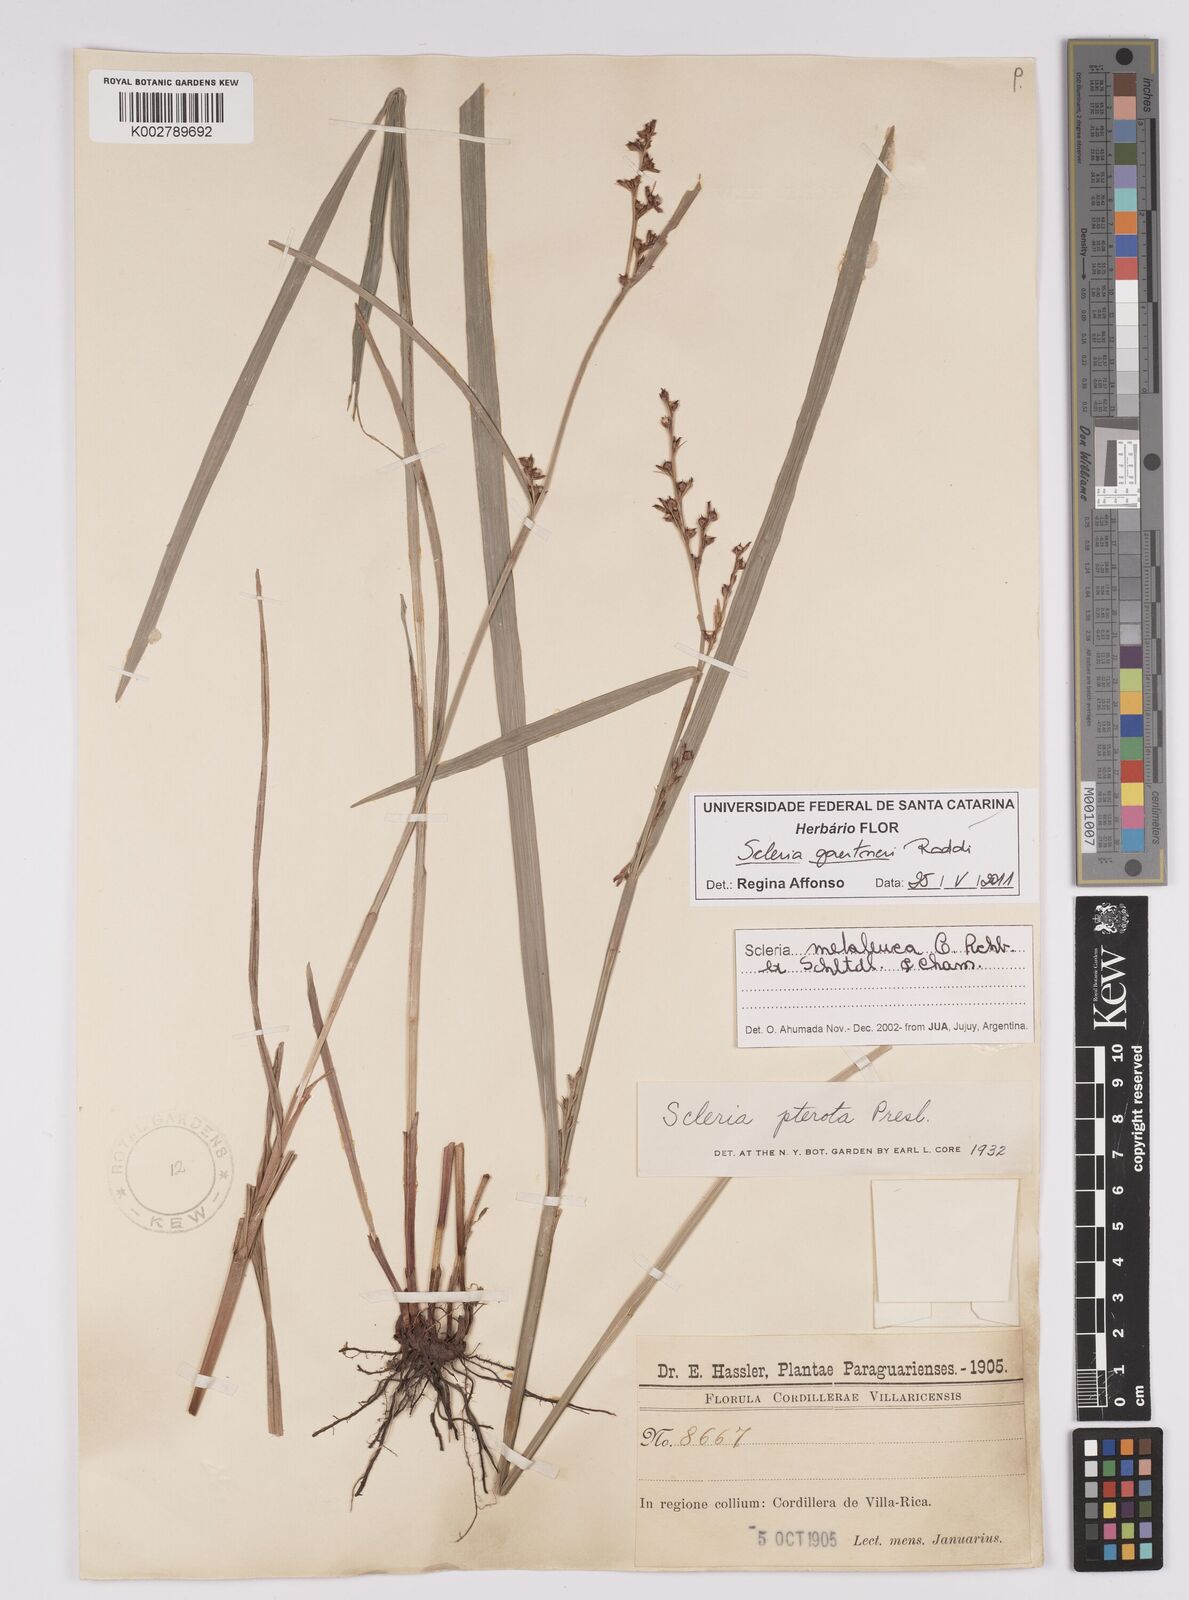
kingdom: Plantae
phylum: Tracheophyta
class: Liliopsida
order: Poales
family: Cyperaceae
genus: Scleria
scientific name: Scleria gaertneri
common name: Cortadera blanca
